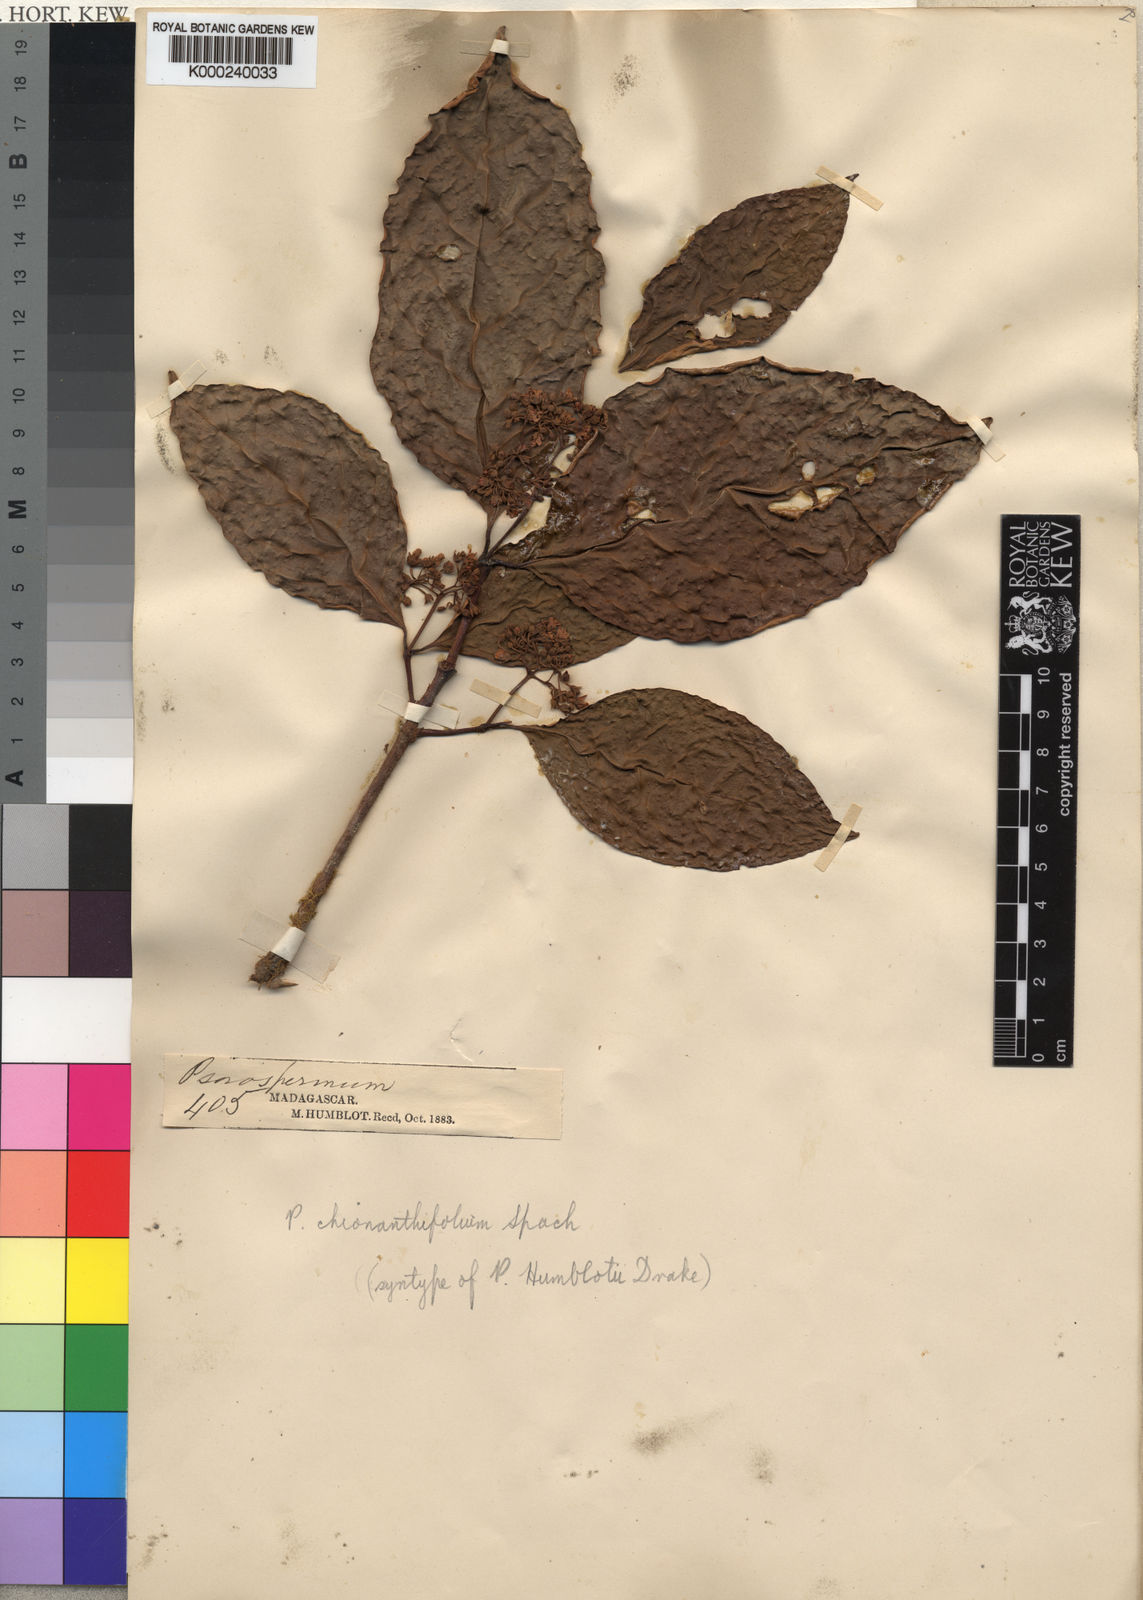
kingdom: Plantae
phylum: Tracheophyta
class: Magnoliopsida
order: Malpighiales
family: Hypericaceae
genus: Psorospermum
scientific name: Psorospermum chionanthifolium
